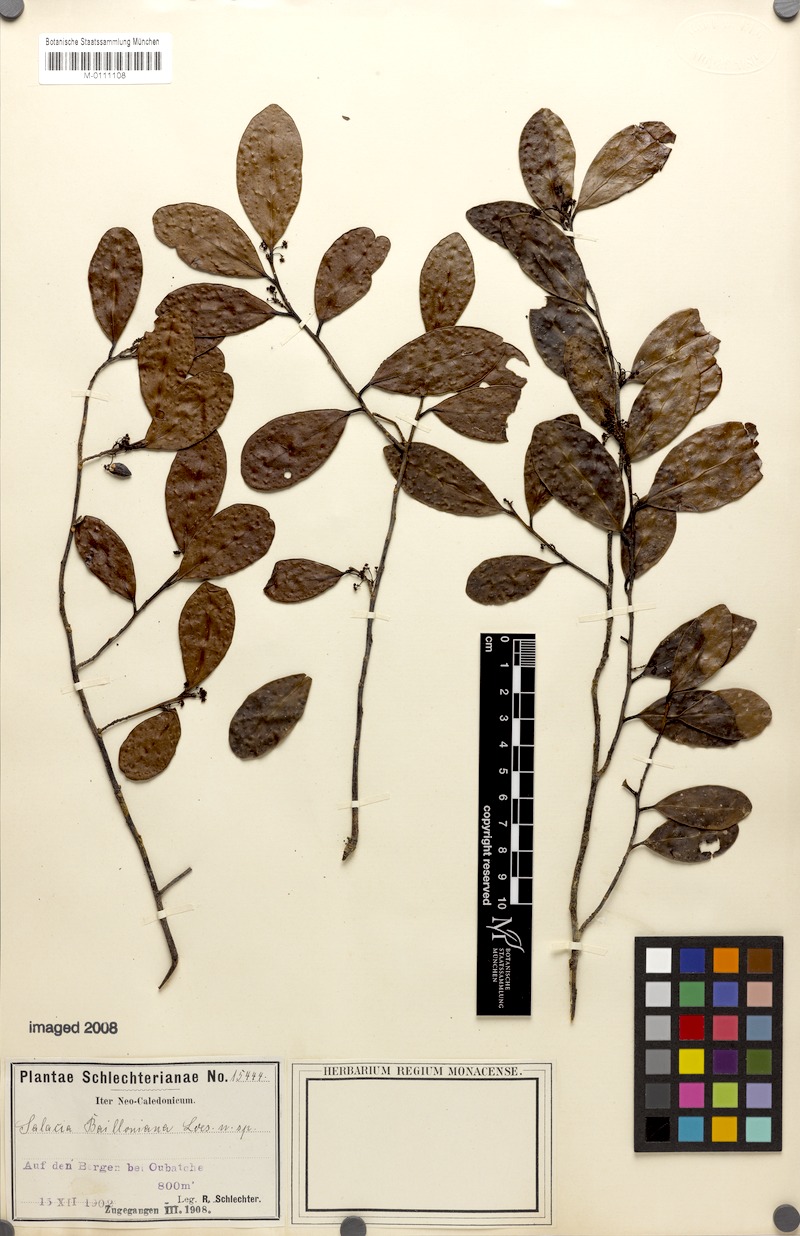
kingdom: Plantae
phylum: Tracheophyta
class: Magnoliopsida
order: Celastrales
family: Celastraceae
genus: Dicarpellum
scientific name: Dicarpellum baillonianum
